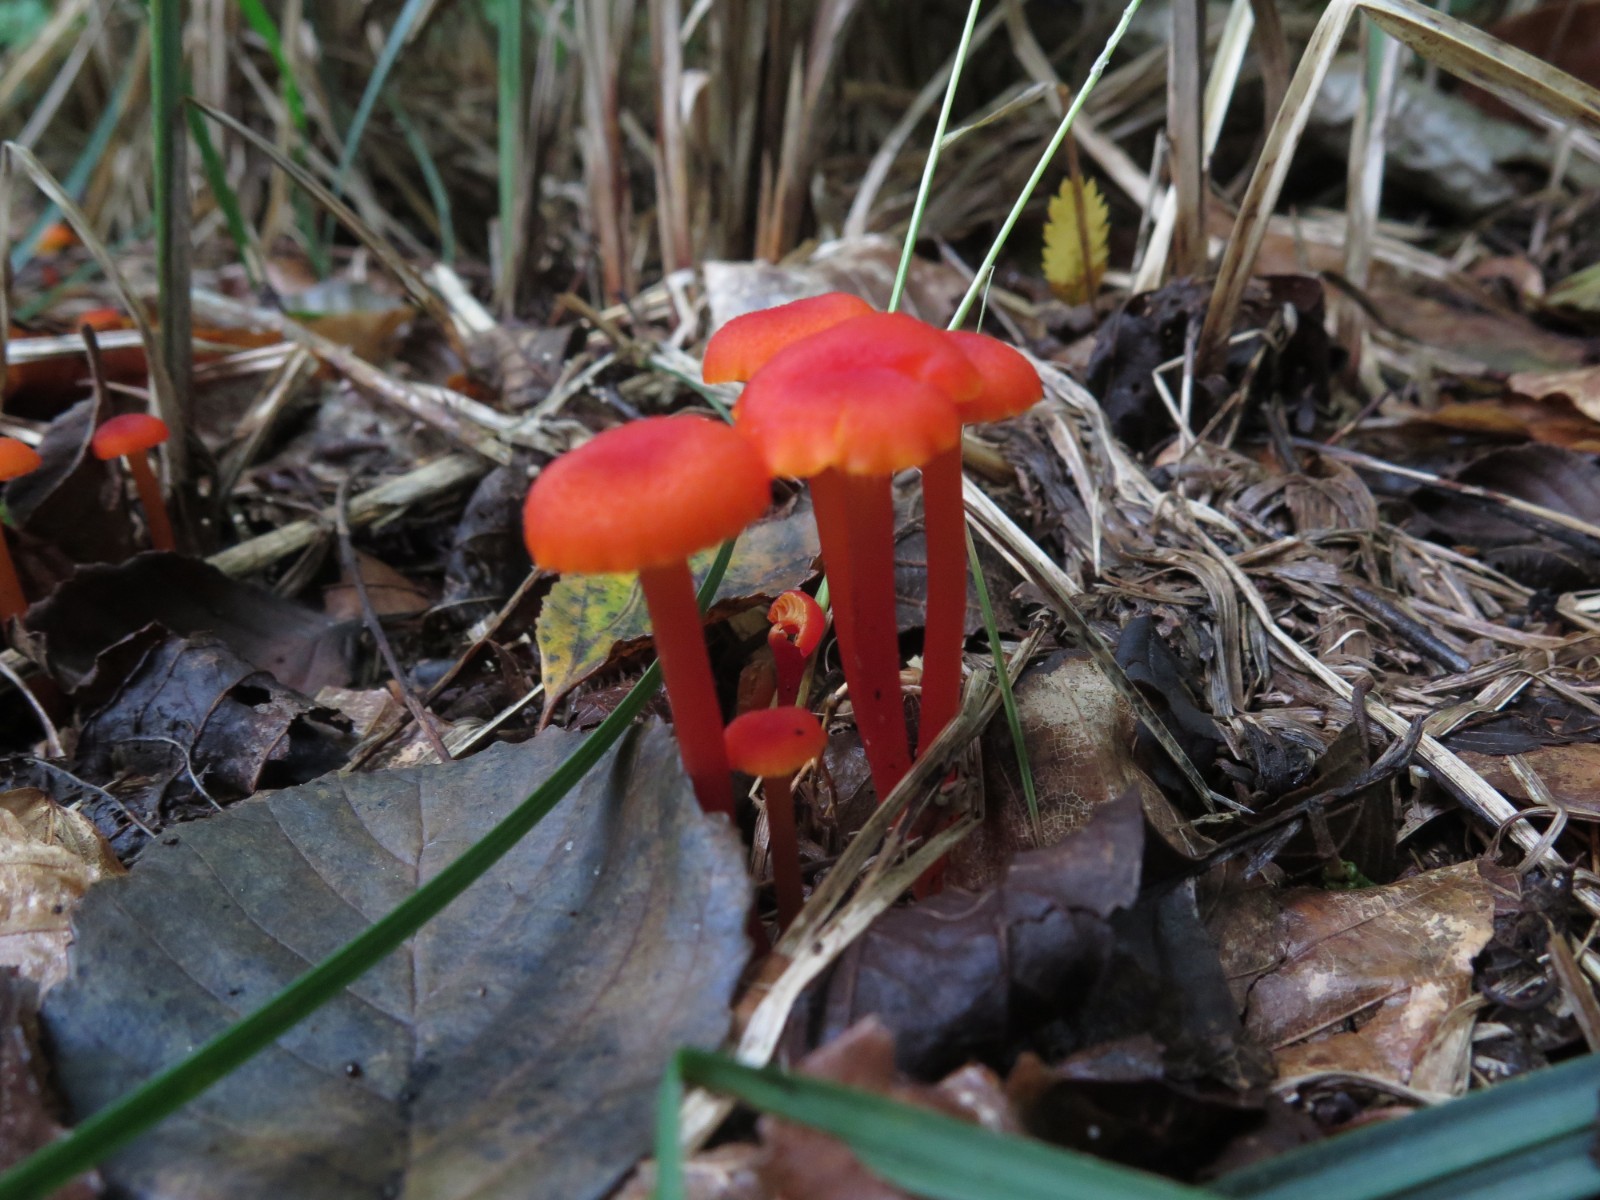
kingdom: Fungi
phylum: Basidiomycota
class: Agaricomycetes
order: Agaricales
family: Hygrophoraceae
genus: Hygrocybe
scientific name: Hygrocybe cantharellus
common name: kantarel-vokshat
